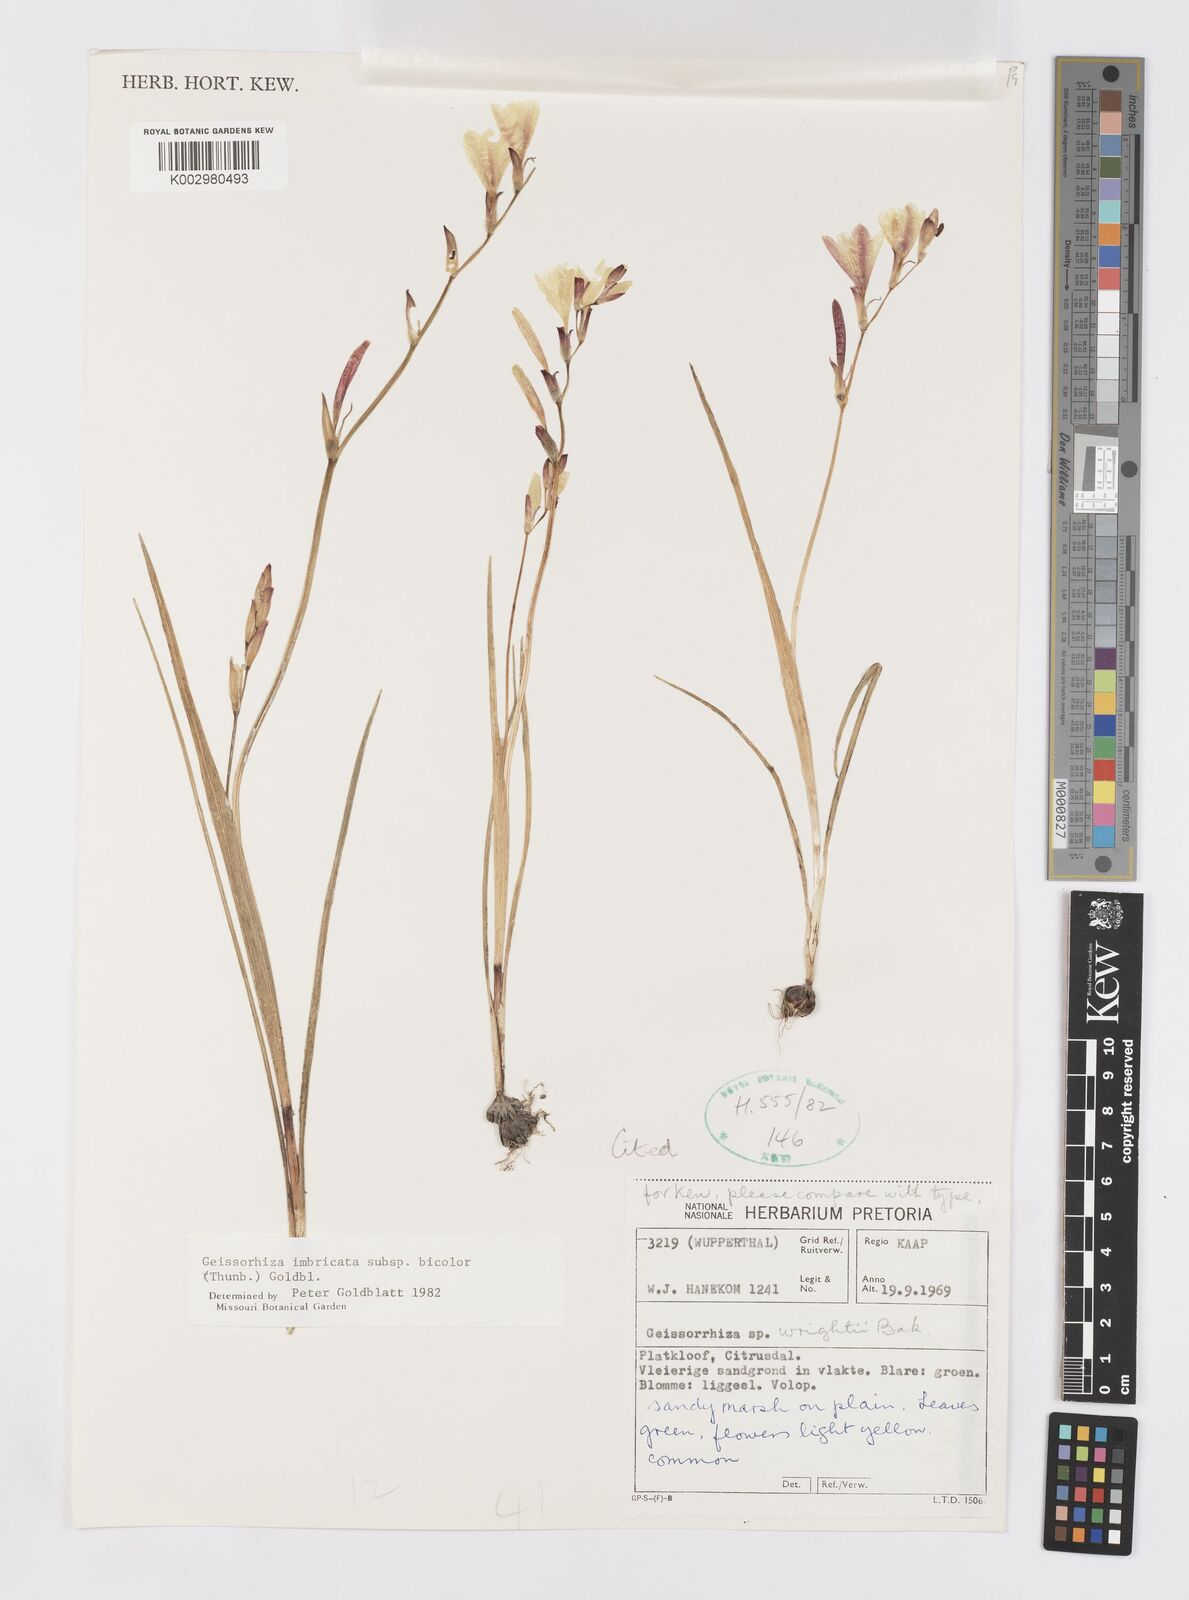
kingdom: Plantae
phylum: Tracheophyta
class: Liliopsida
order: Asparagales
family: Iridaceae
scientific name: Iridaceae
